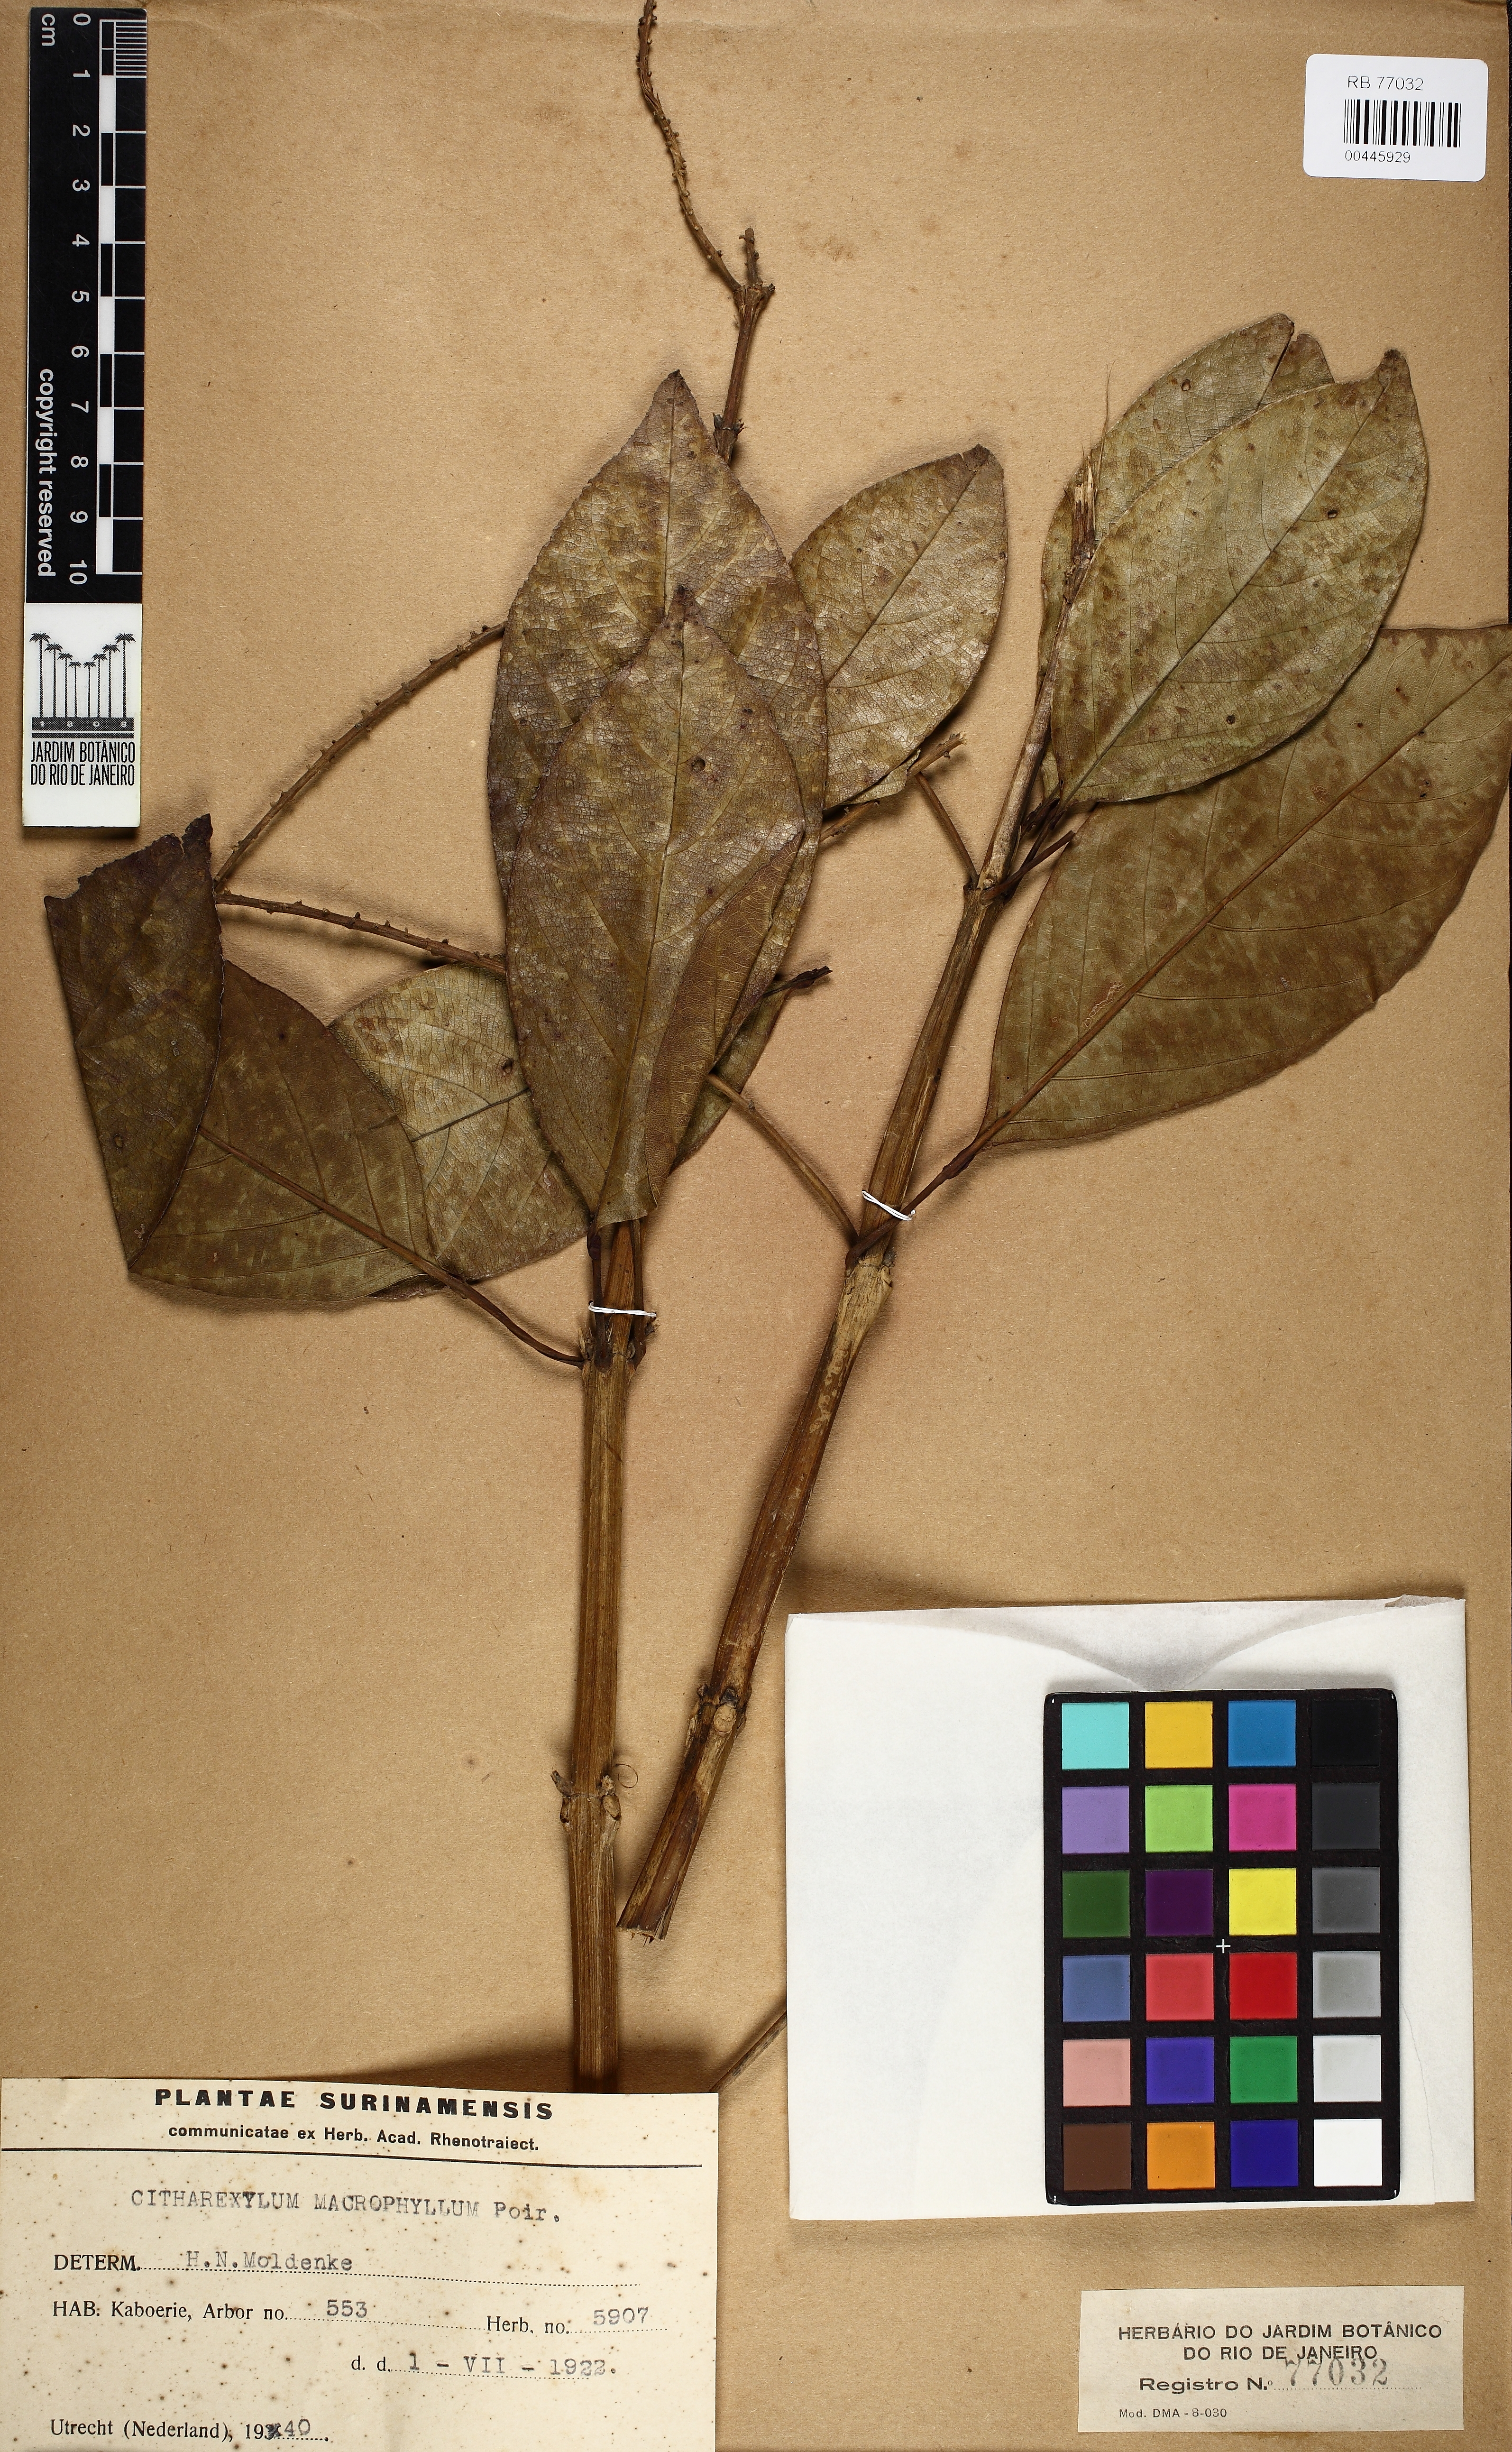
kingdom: Plantae
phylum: Tracheophyta
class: Magnoliopsida
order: Lamiales
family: Verbenaceae
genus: Citharexylum
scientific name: Citharexylum myrianthum
